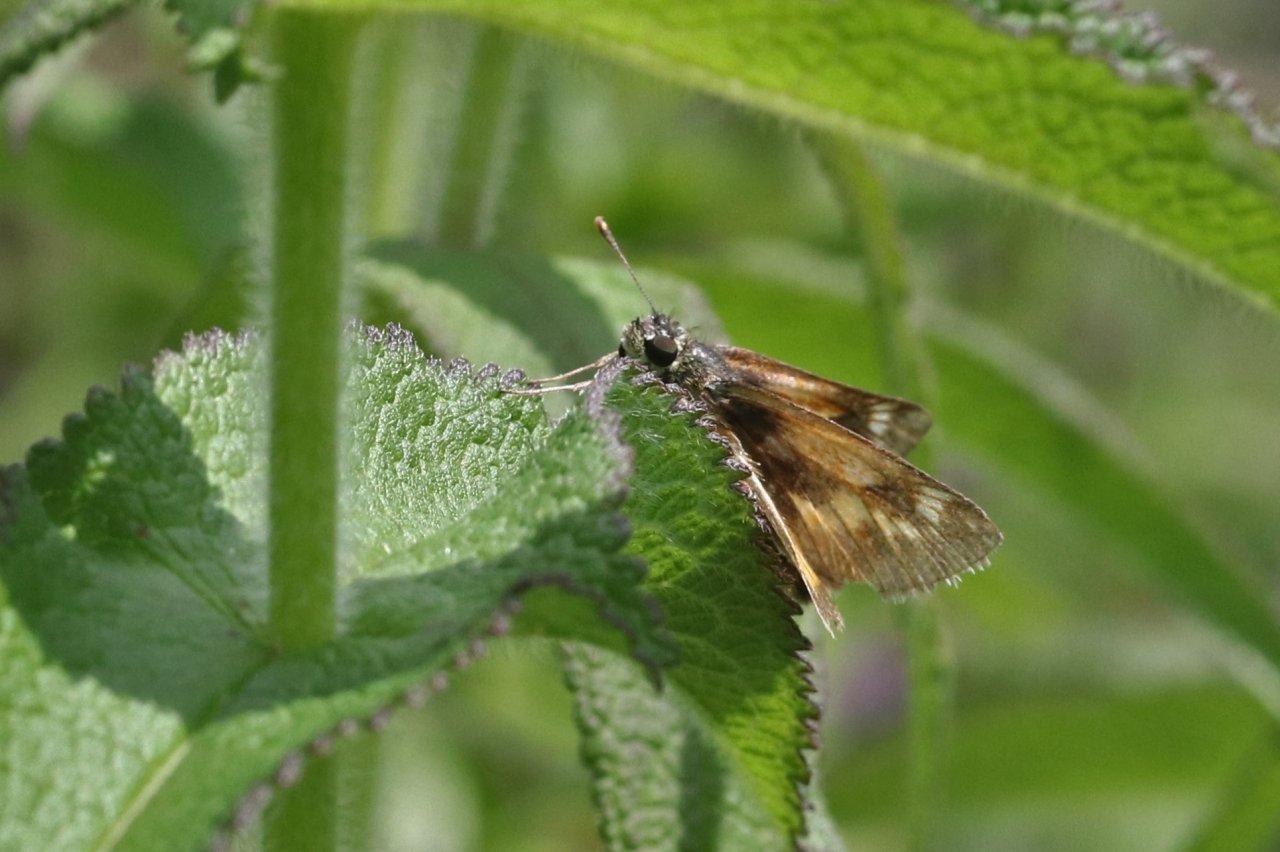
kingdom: Animalia
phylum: Arthropoda
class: Insecta
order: Lepidoptera
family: Hesperiidae
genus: Lon
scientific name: Lon hobomok
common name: Hobomok Skipper
